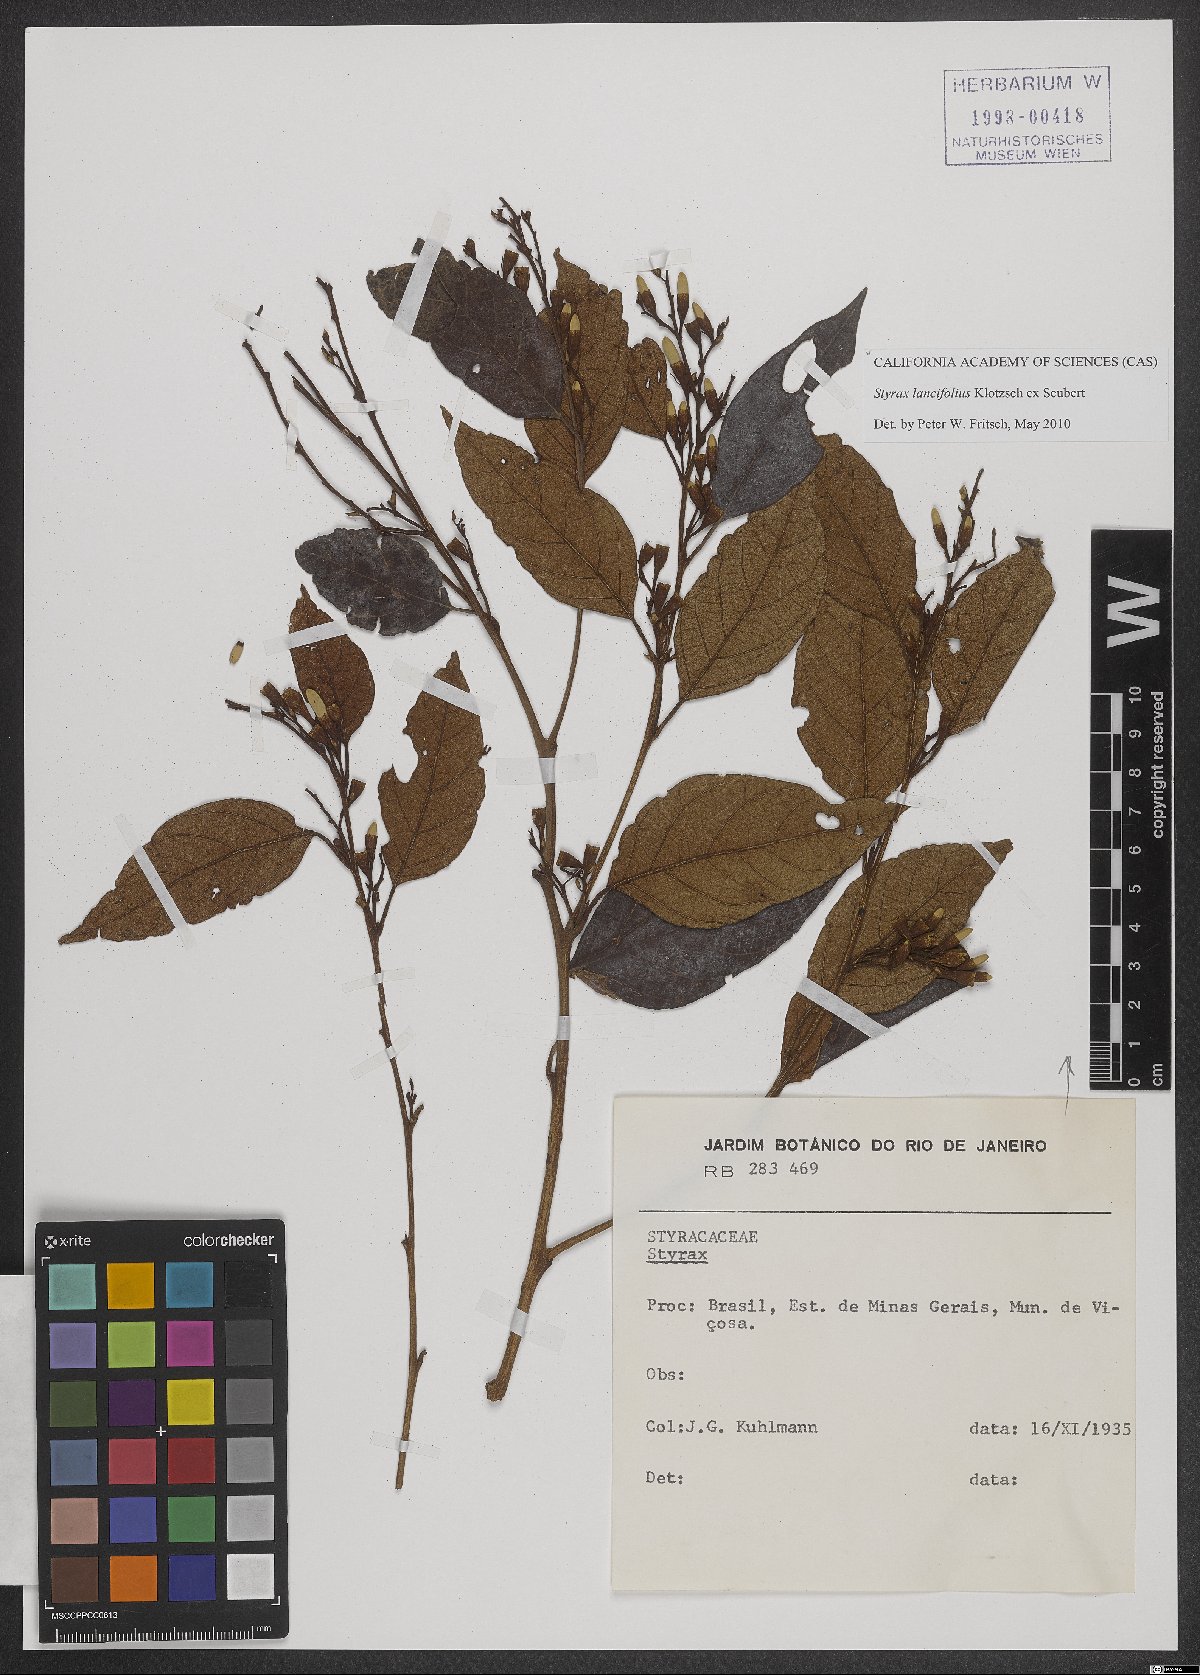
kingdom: Plantae
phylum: Tracheophyta
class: Magnoliopsida
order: Ericales
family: Styracaceae
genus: Styrax
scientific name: Styrax lancifolius
